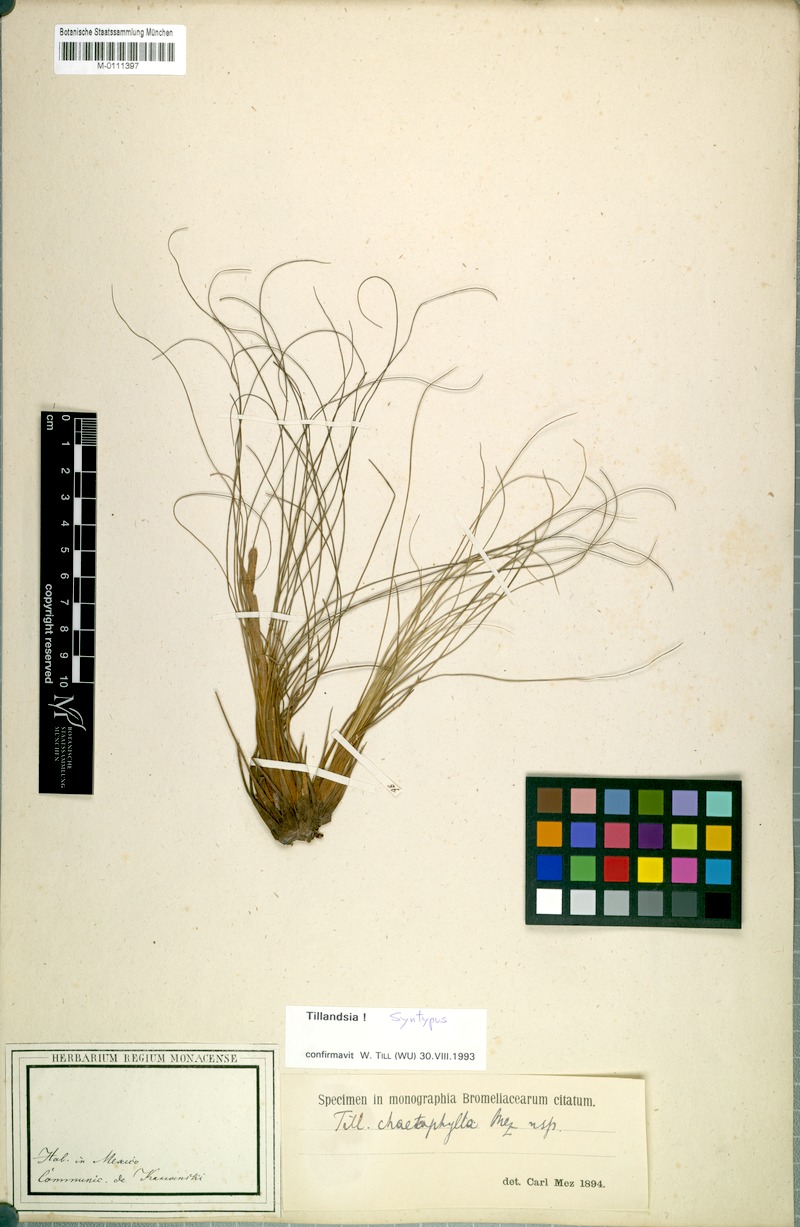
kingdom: Plantae
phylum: Tracheophyta
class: Liliopsida
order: Poales
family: Bromeliaceae
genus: Tillandsia
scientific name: Tillandsia chaetophylla
